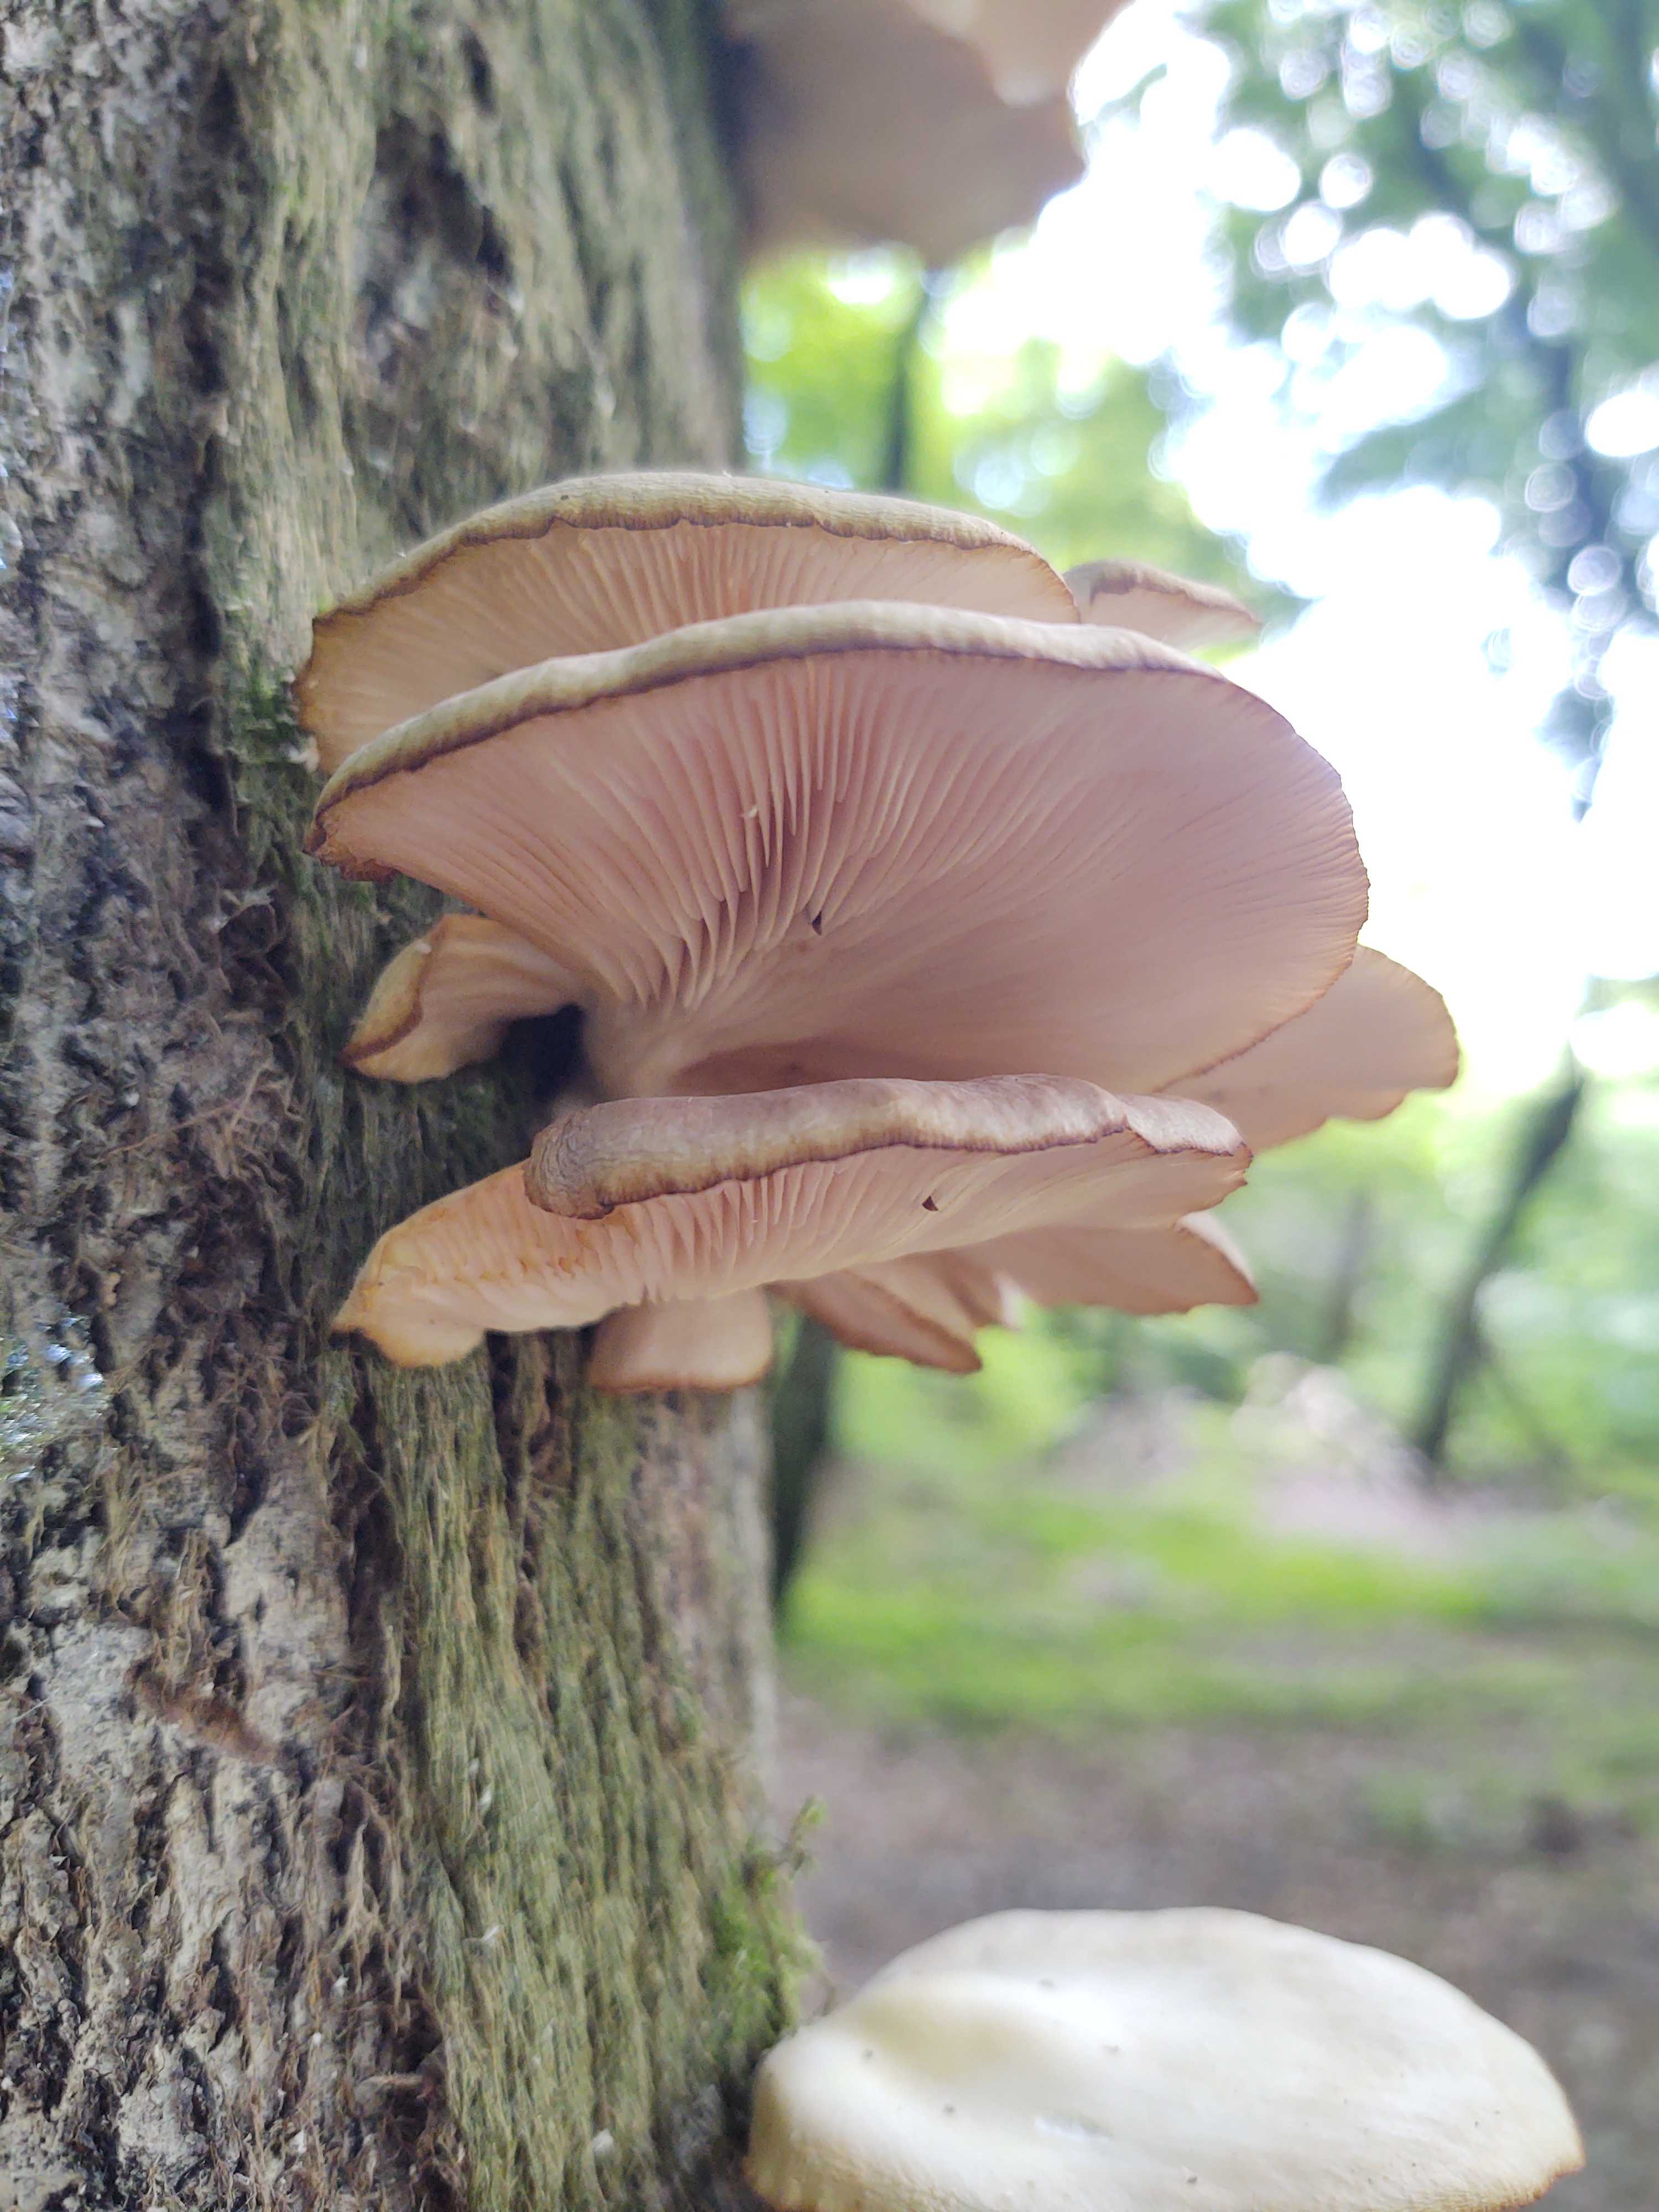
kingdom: Fungi
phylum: Basidiomycota
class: Agaricomycetes
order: Agaricales
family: Pleurotaceae
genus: Pleurotus
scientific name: Pleurotus pulmonarius
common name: sommer-østershat
